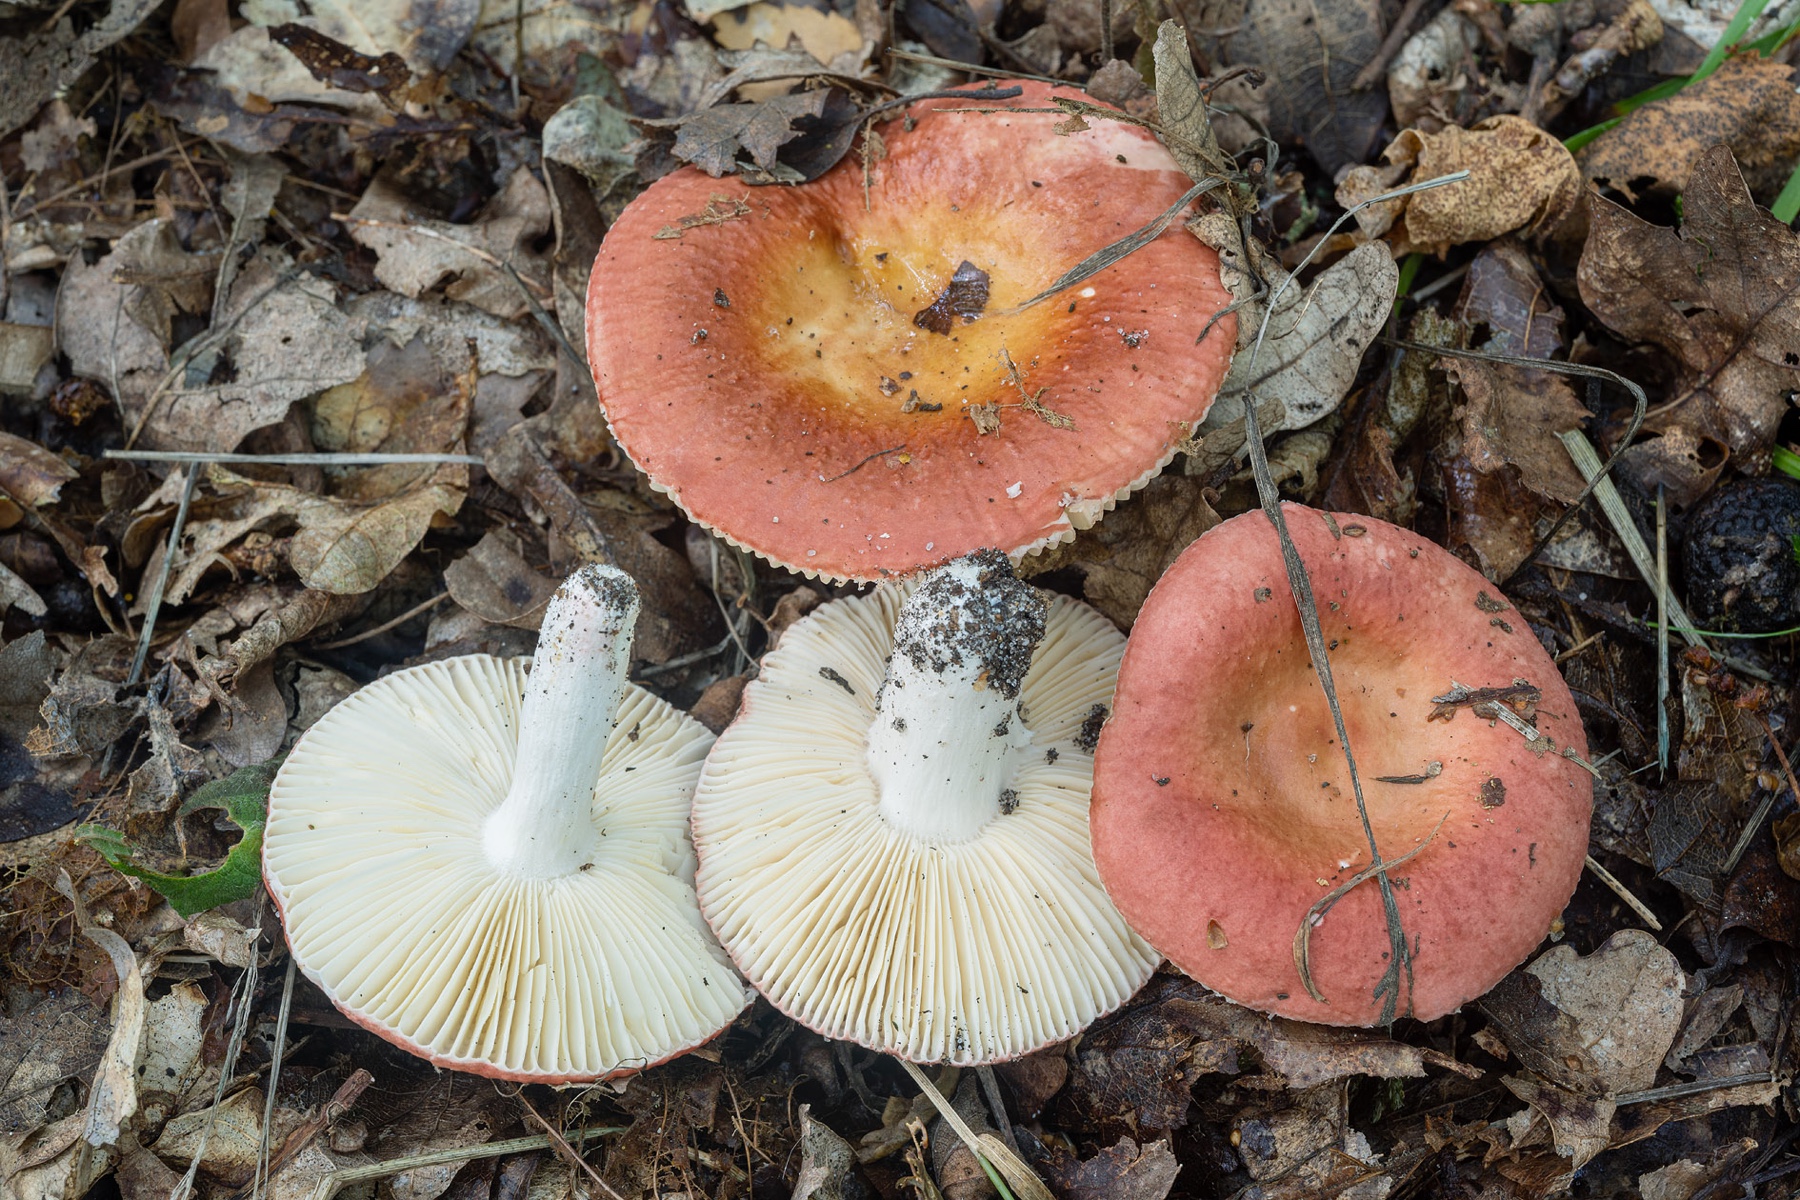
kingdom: Fungi
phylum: Basidiomycota
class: Agaricomycetes
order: Russulales
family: Russulaceae
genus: Russula
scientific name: Russula velenovskyi
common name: orangerød skørhat
